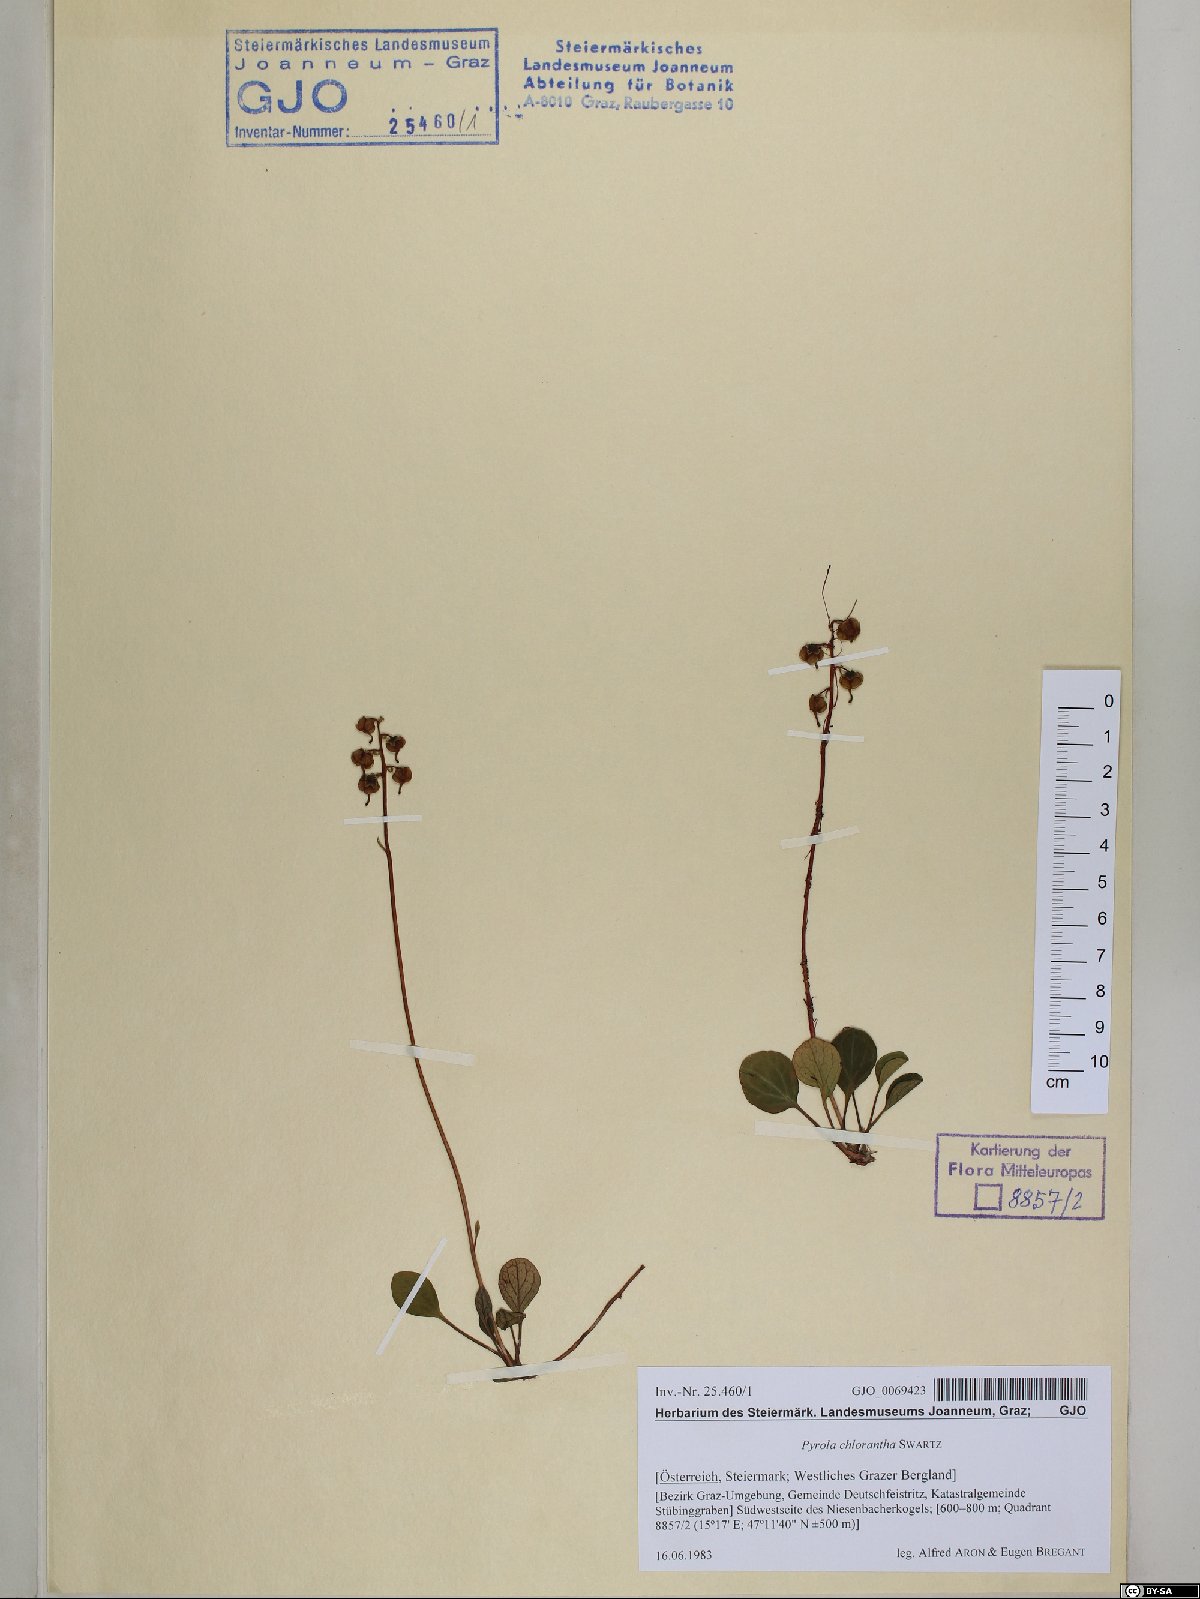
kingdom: Plantae
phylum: Tracheophyta
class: Magnoliopsida
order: Ericales
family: Ericaceae
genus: Pyrola
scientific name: Pyrola chlorantha
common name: Green wintergreen
